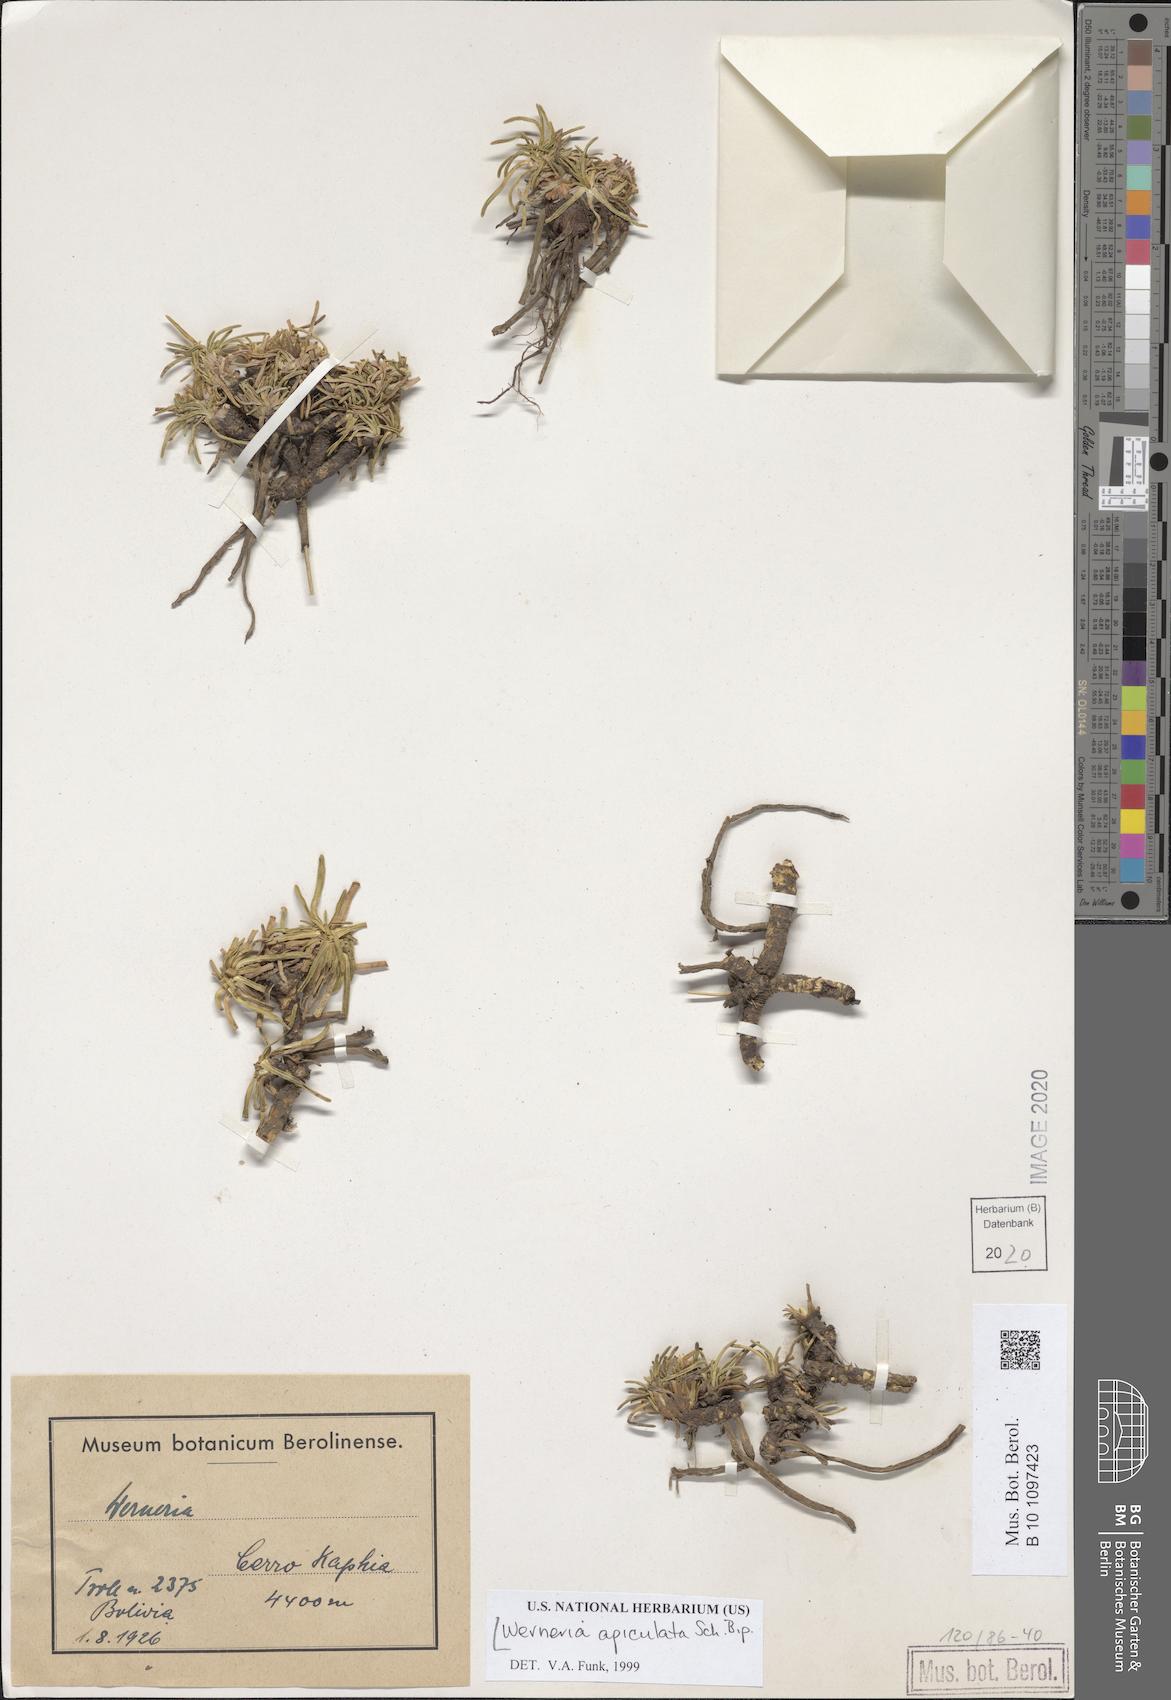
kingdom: Plantae
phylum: Tracheophyta
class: Magnoliopsida
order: Asterales
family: Asteraceae
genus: Rockhausenia
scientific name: Rockhausenia apiculata
